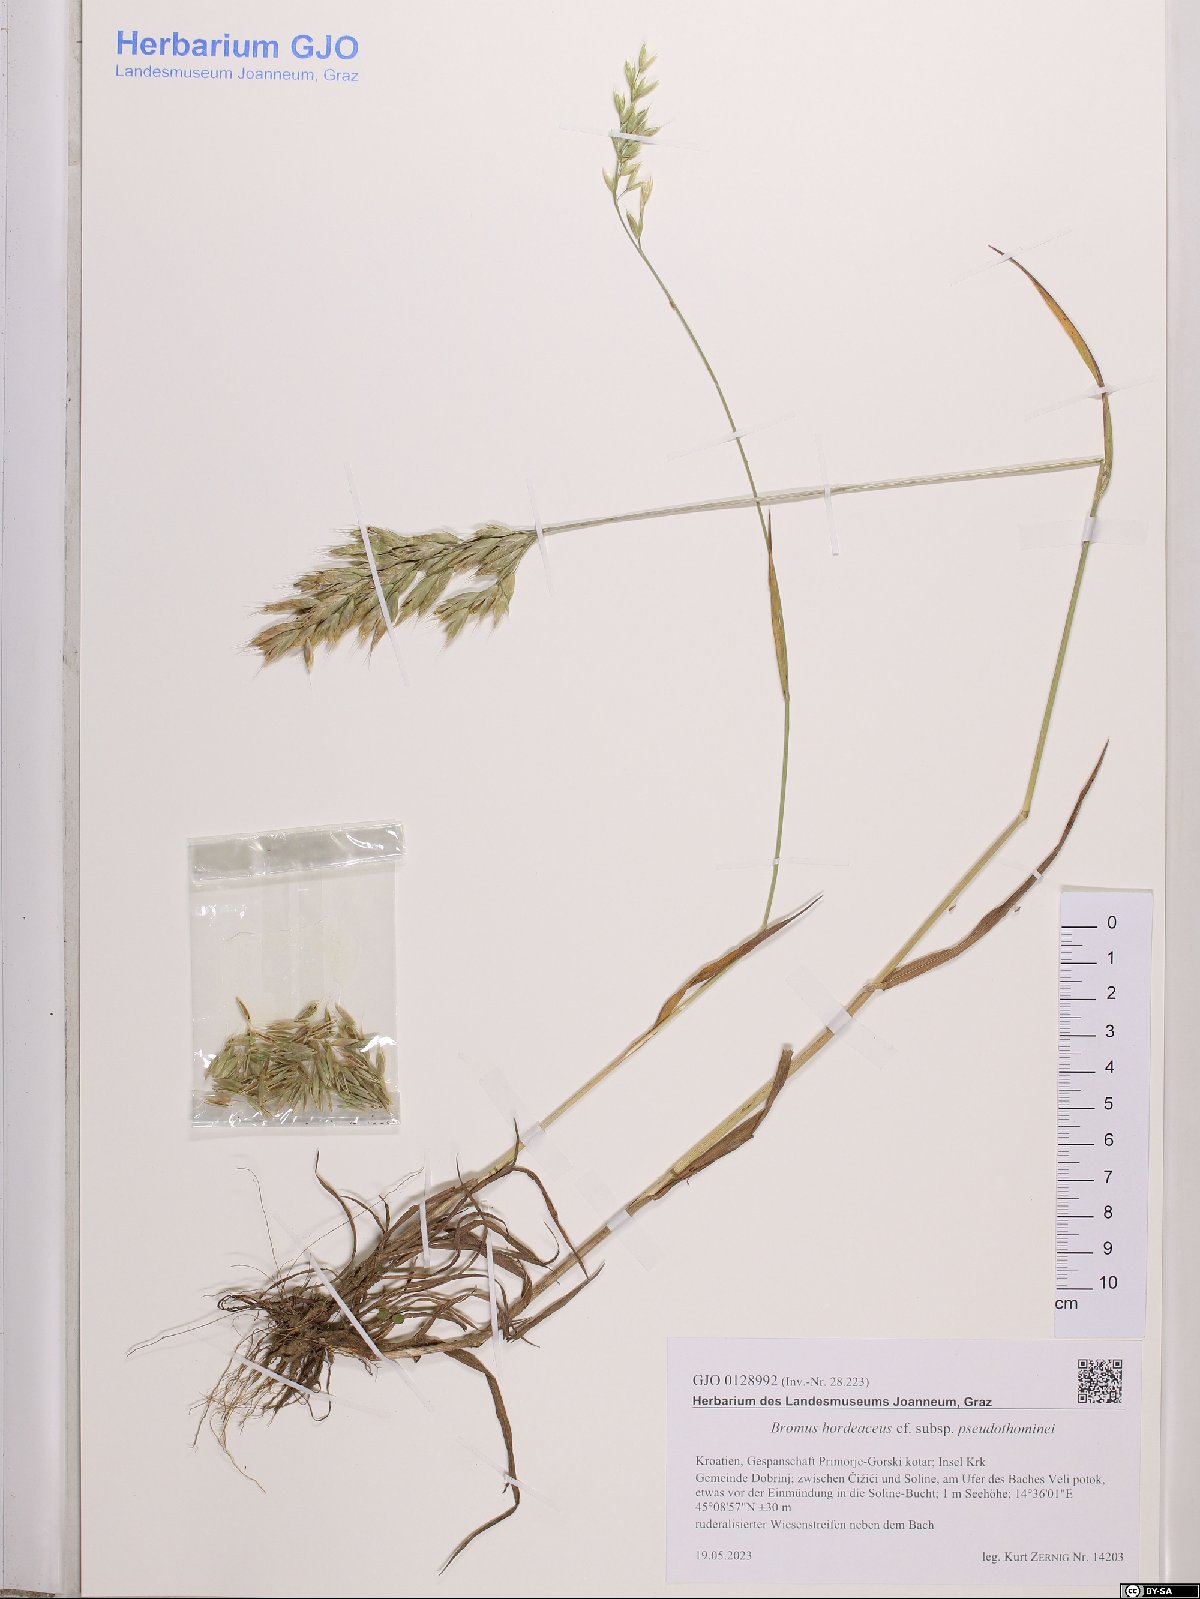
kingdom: Plantae
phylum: Tracheophyta
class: Liliopsida
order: Poales
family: Poaceae
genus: Bromus
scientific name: Bromus ferronii
